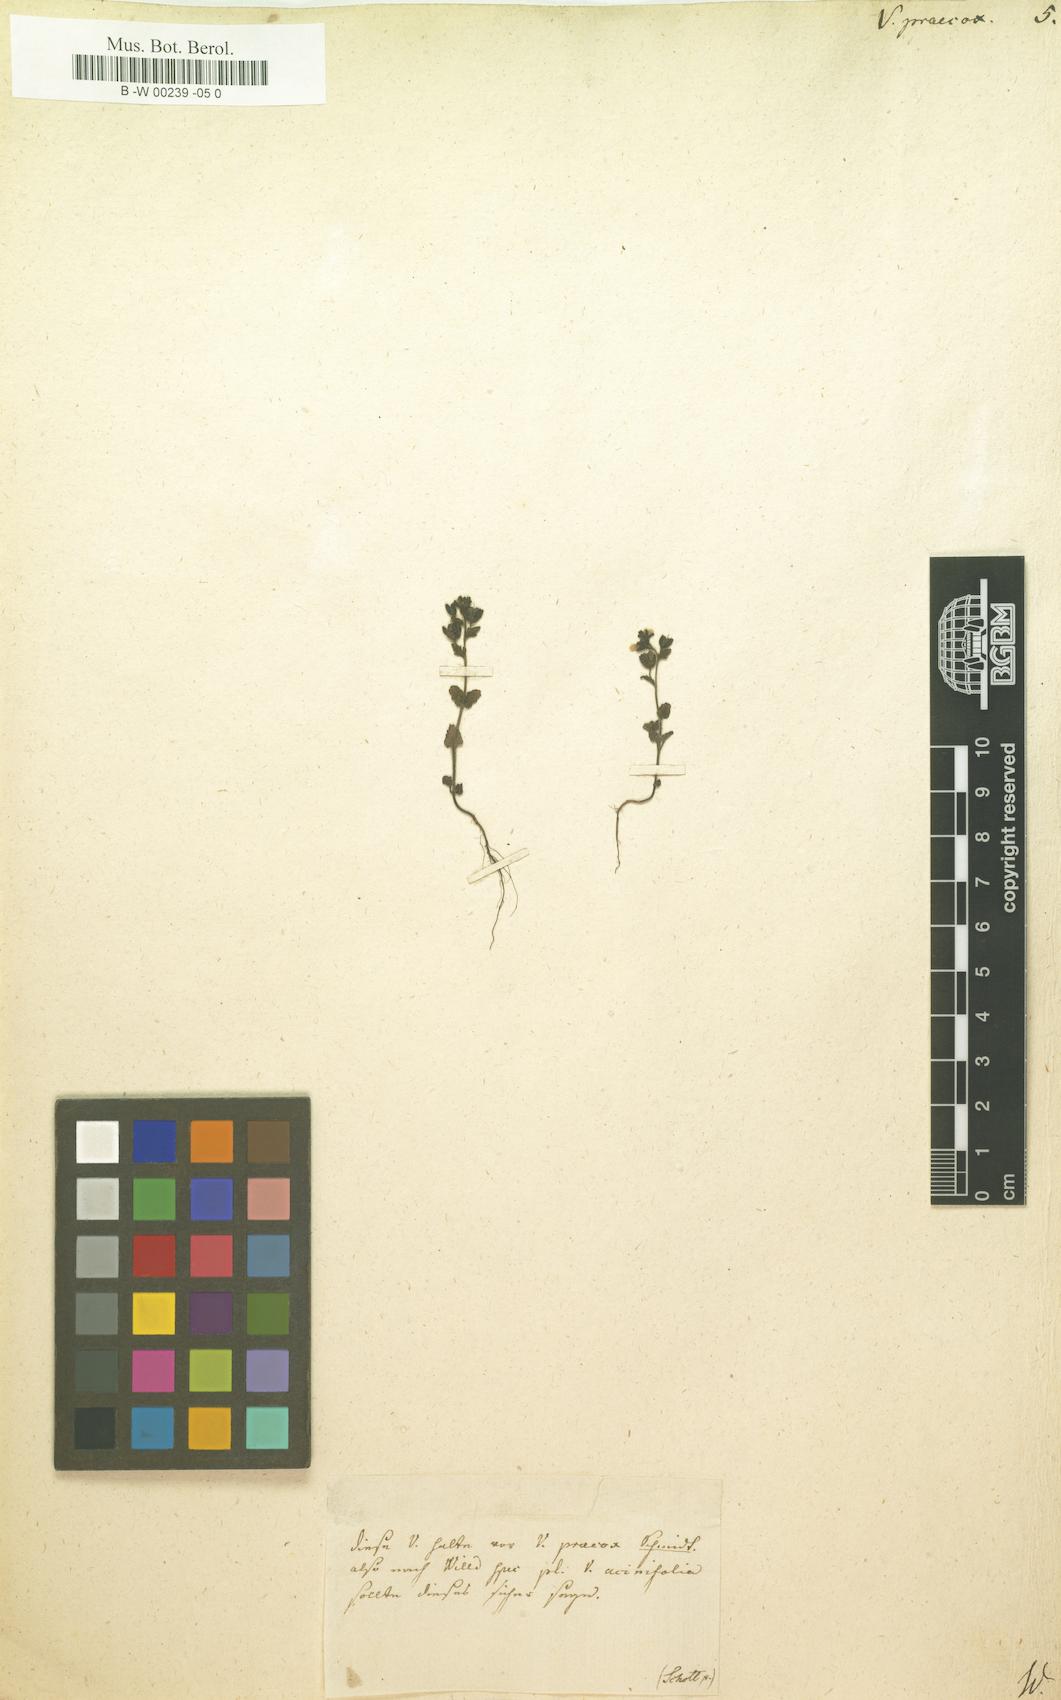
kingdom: Plantae
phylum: Tracheophyta
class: Magnoliopsida
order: Lamiales
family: Plantaginaceae
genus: Veronica
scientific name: Veronica praecox
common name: Breckland speedwell
